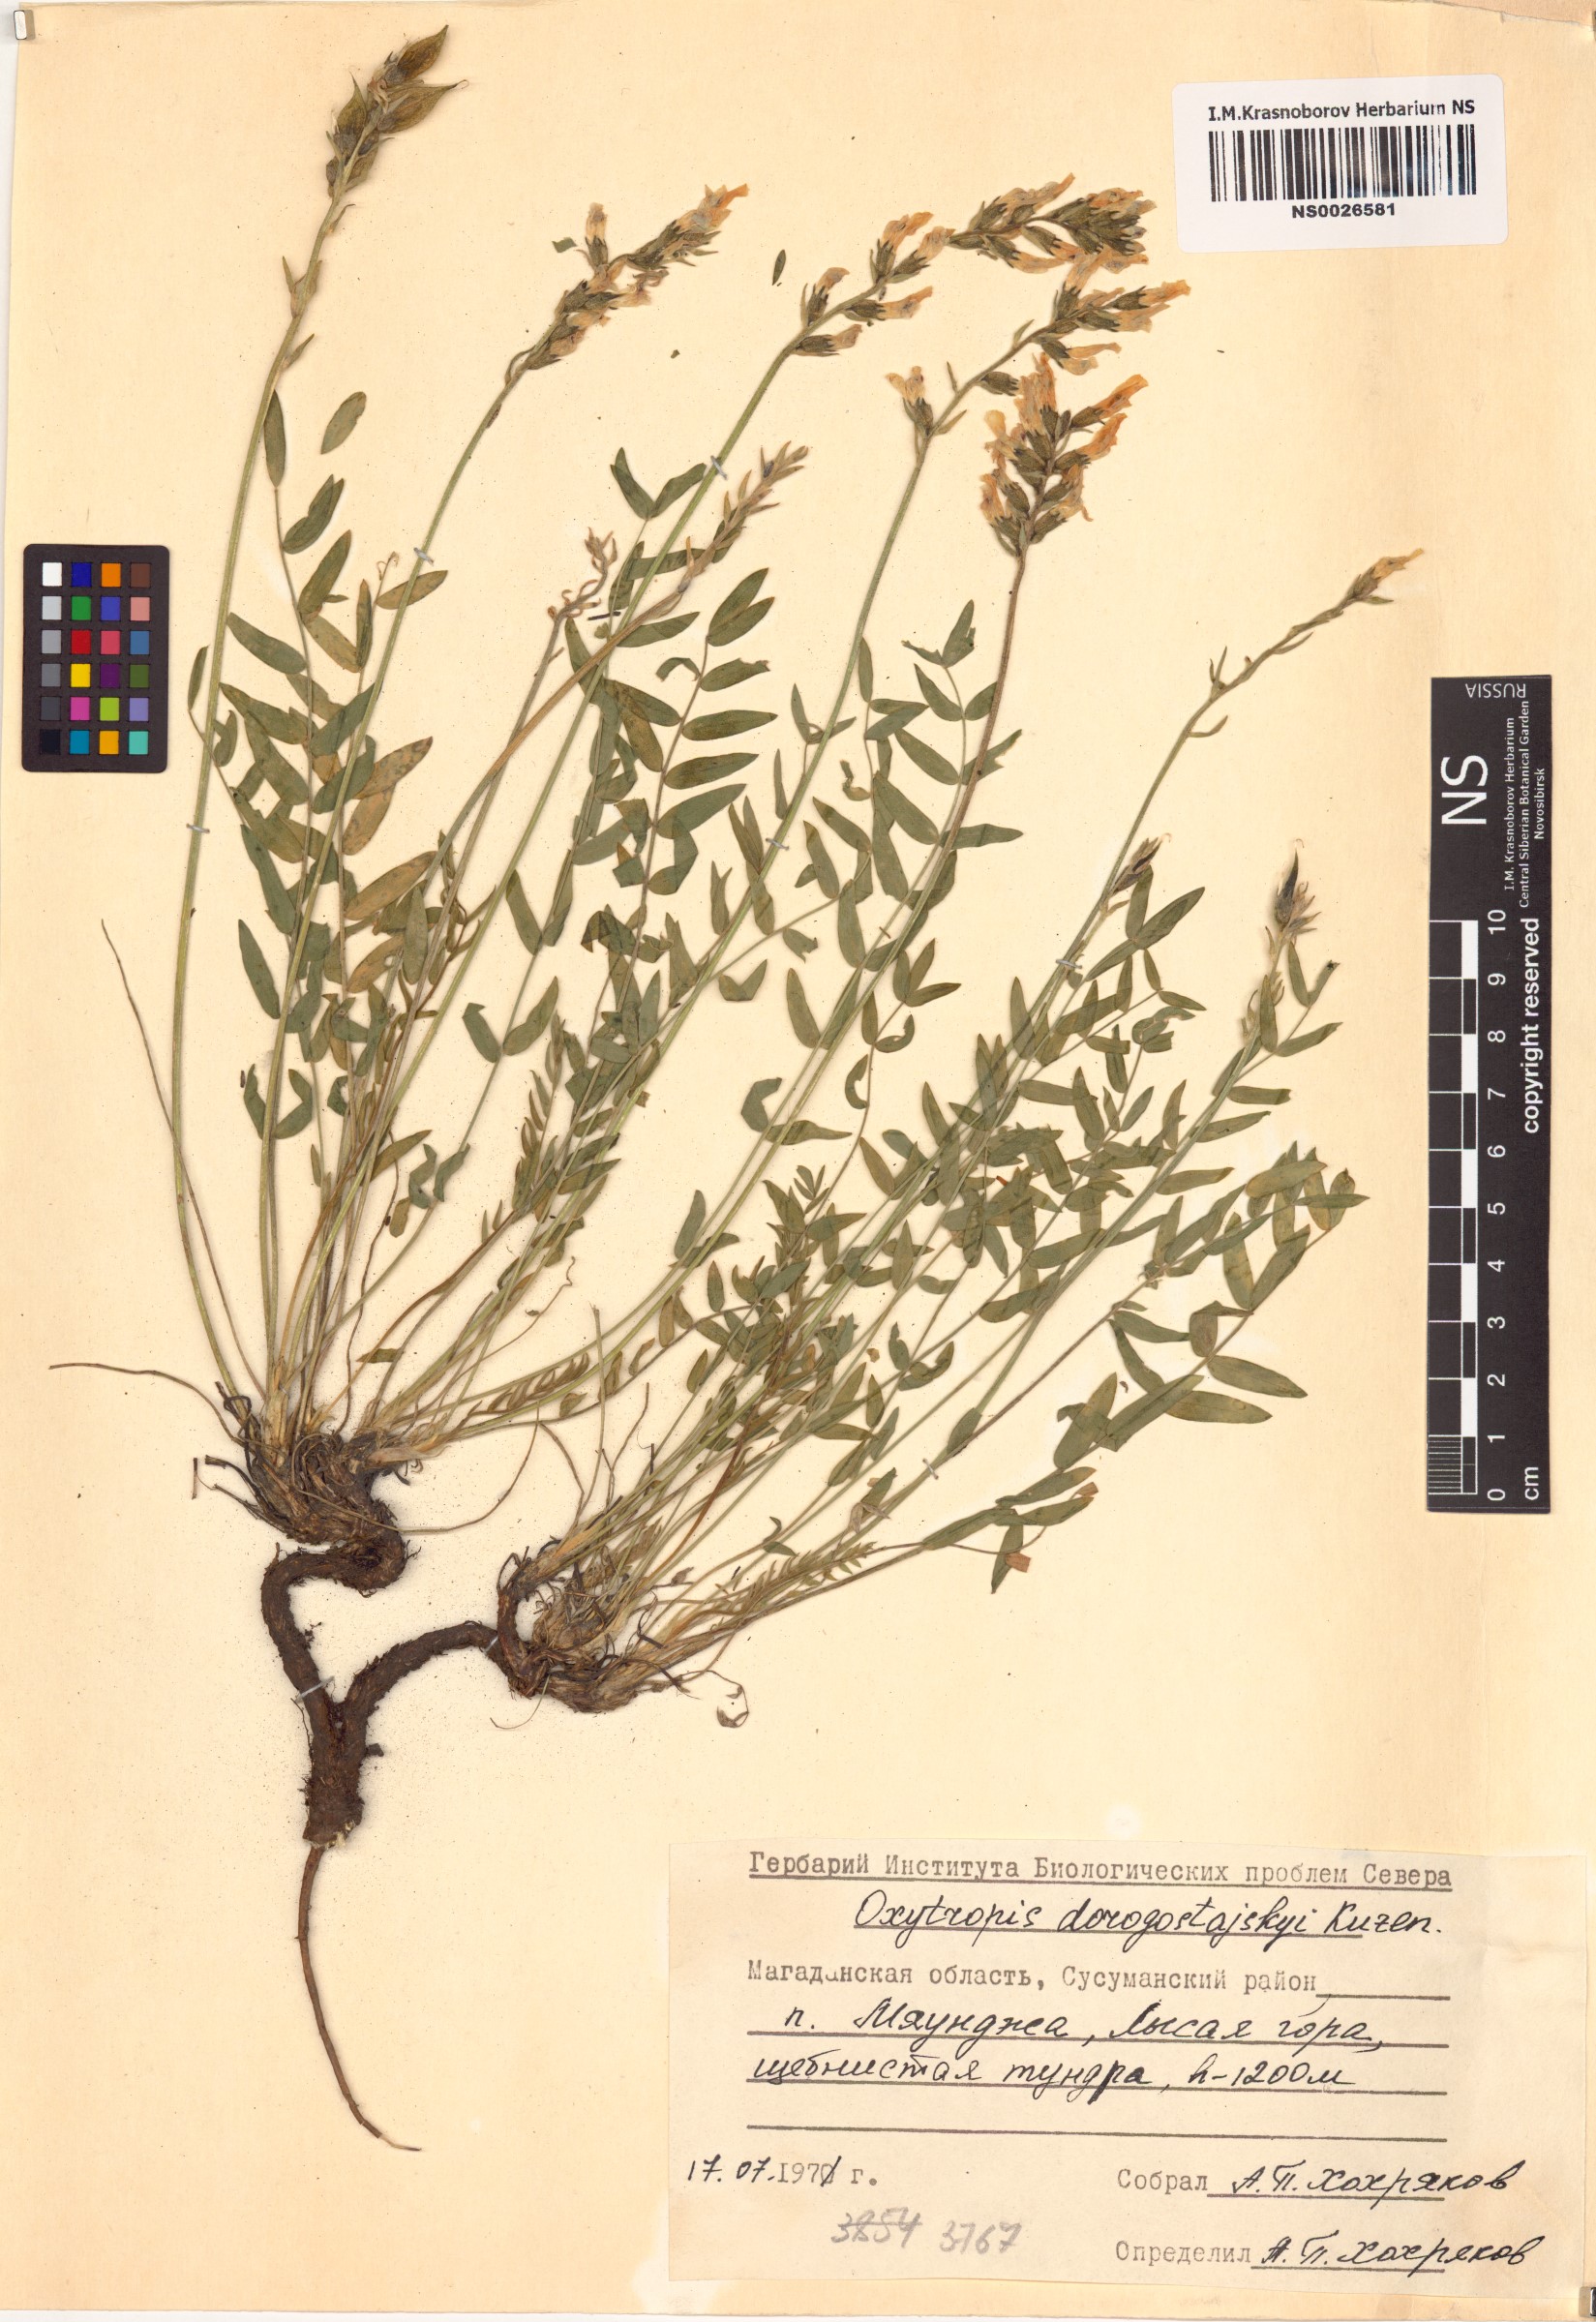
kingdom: Plantae
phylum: Tracheophyta
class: Magnoliopsida
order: Fabales
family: Fabaceae
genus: Oxytropis
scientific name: Oxytropis dorogostajskyi
